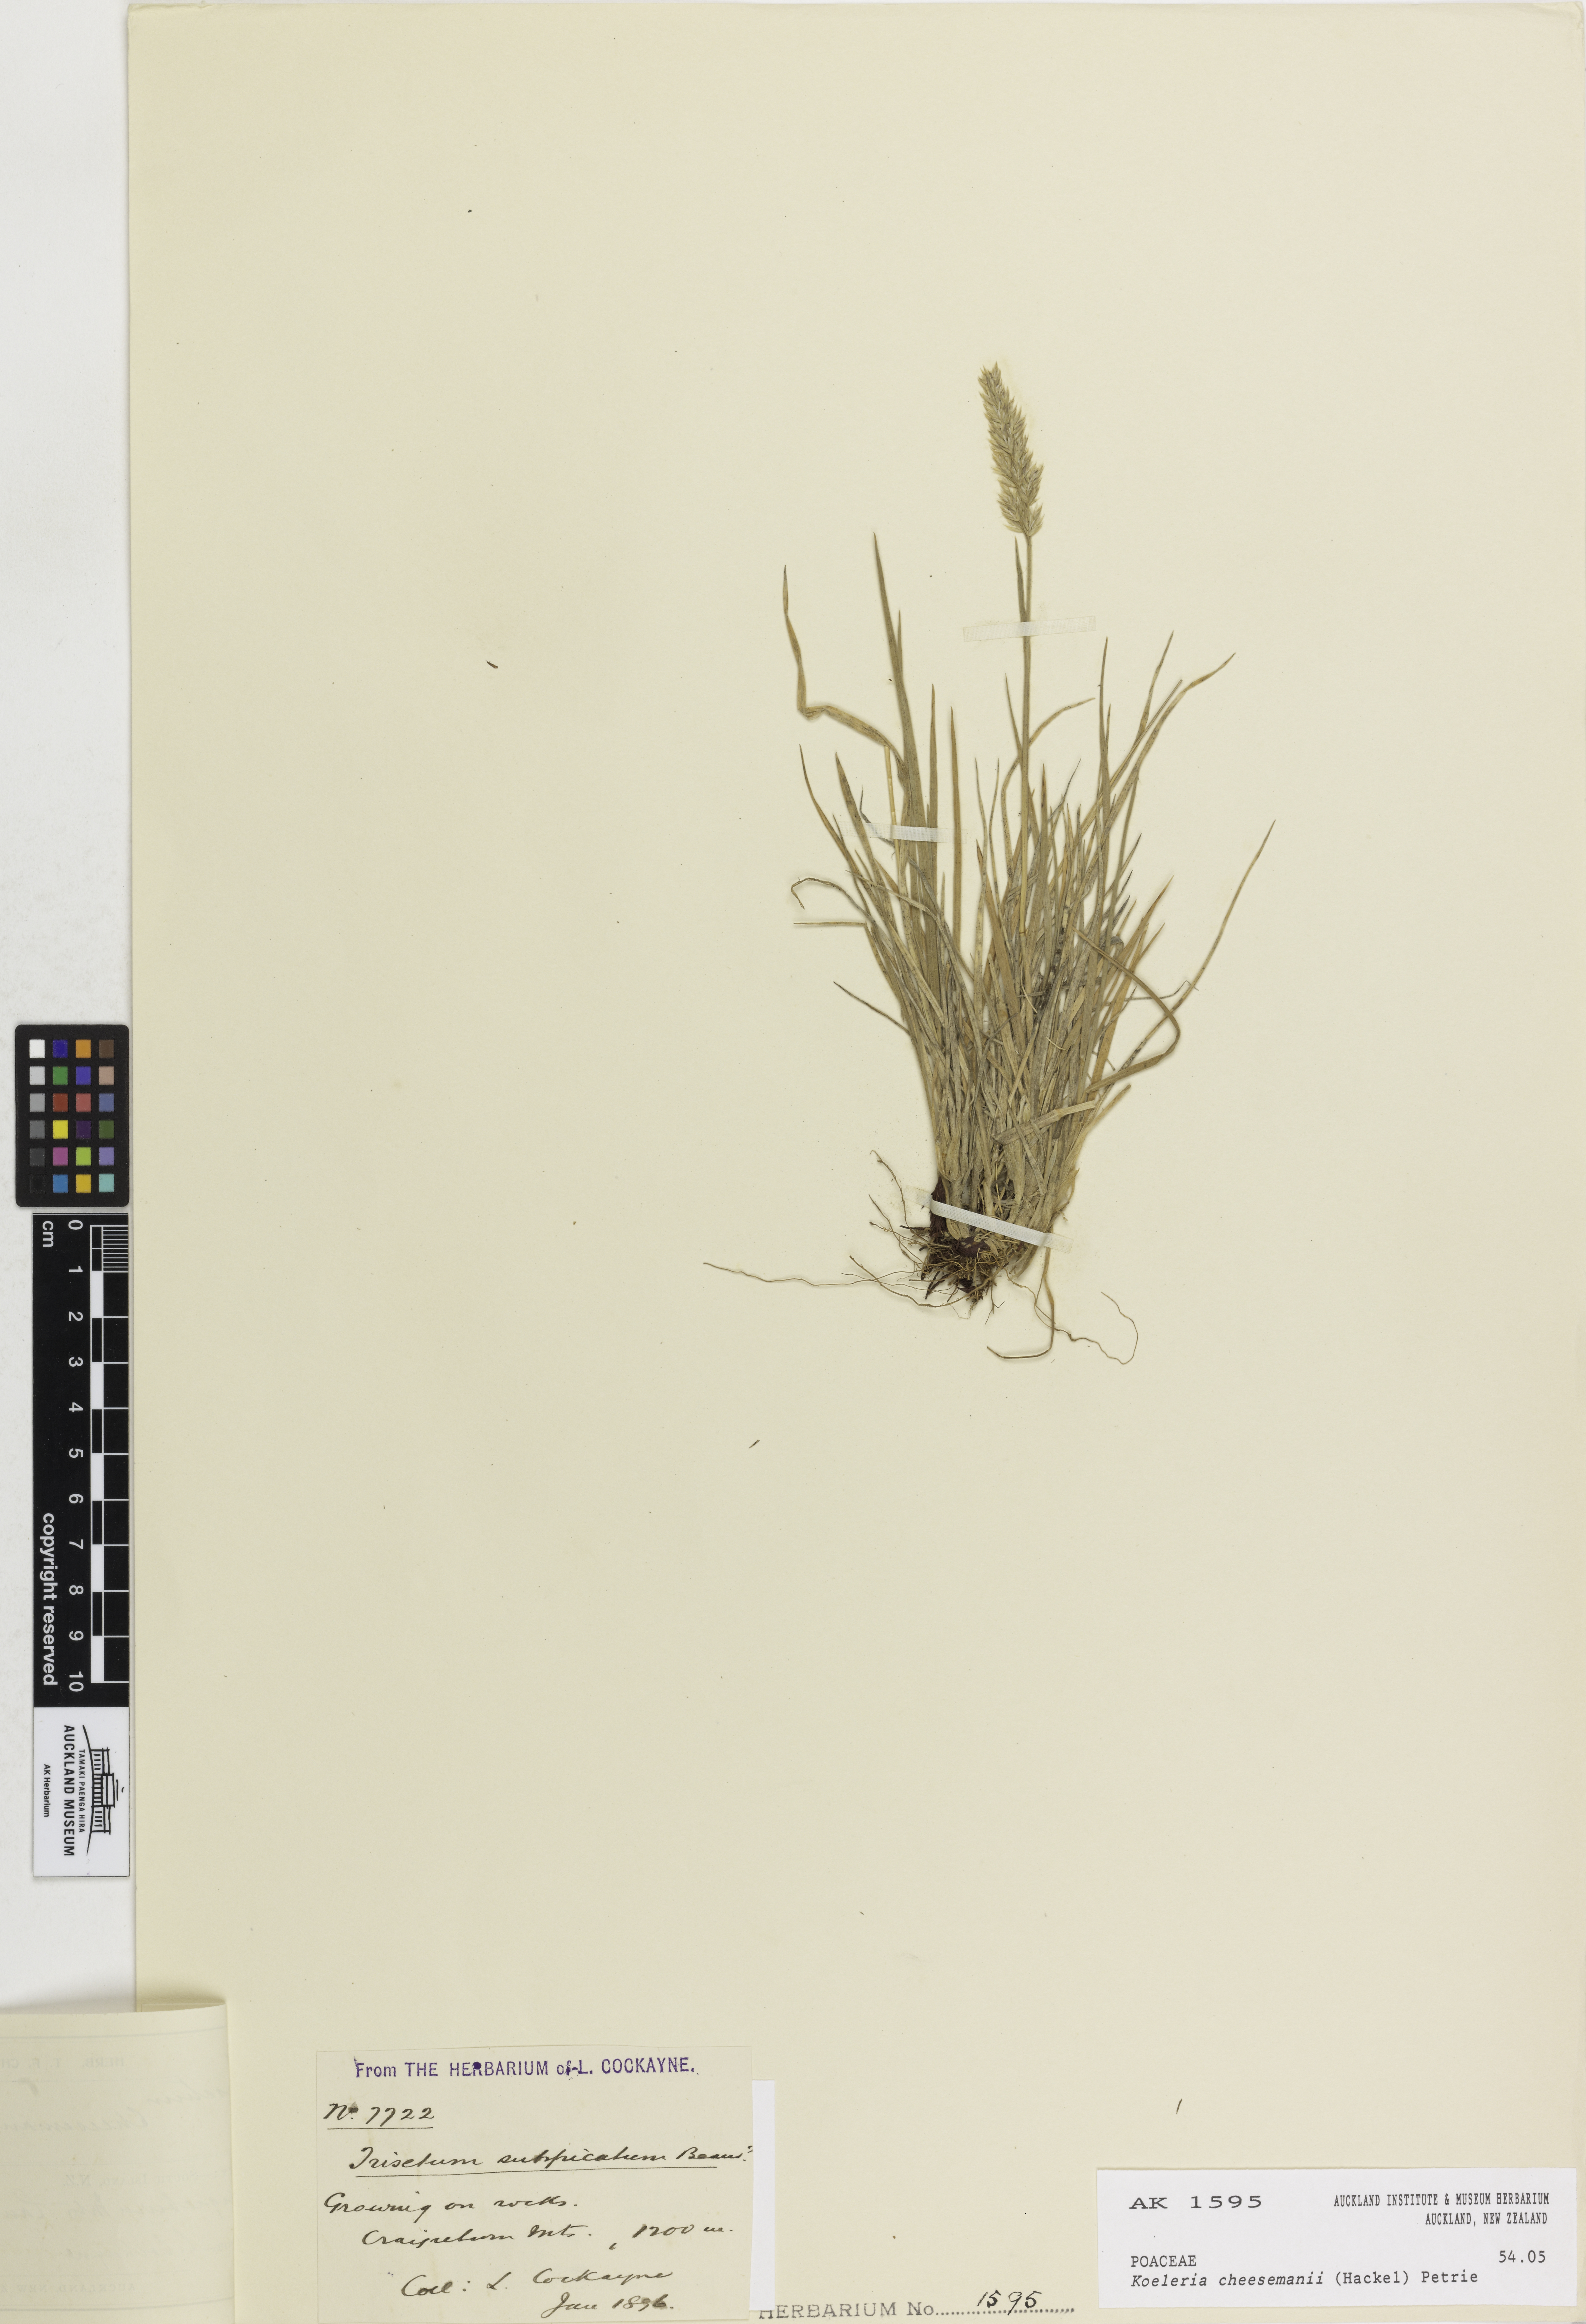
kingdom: Plantae
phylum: Tracheophyta
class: Liliopsida
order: Poales
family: Poaceae
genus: Koeleria
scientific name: Koeleria cheesemanii
